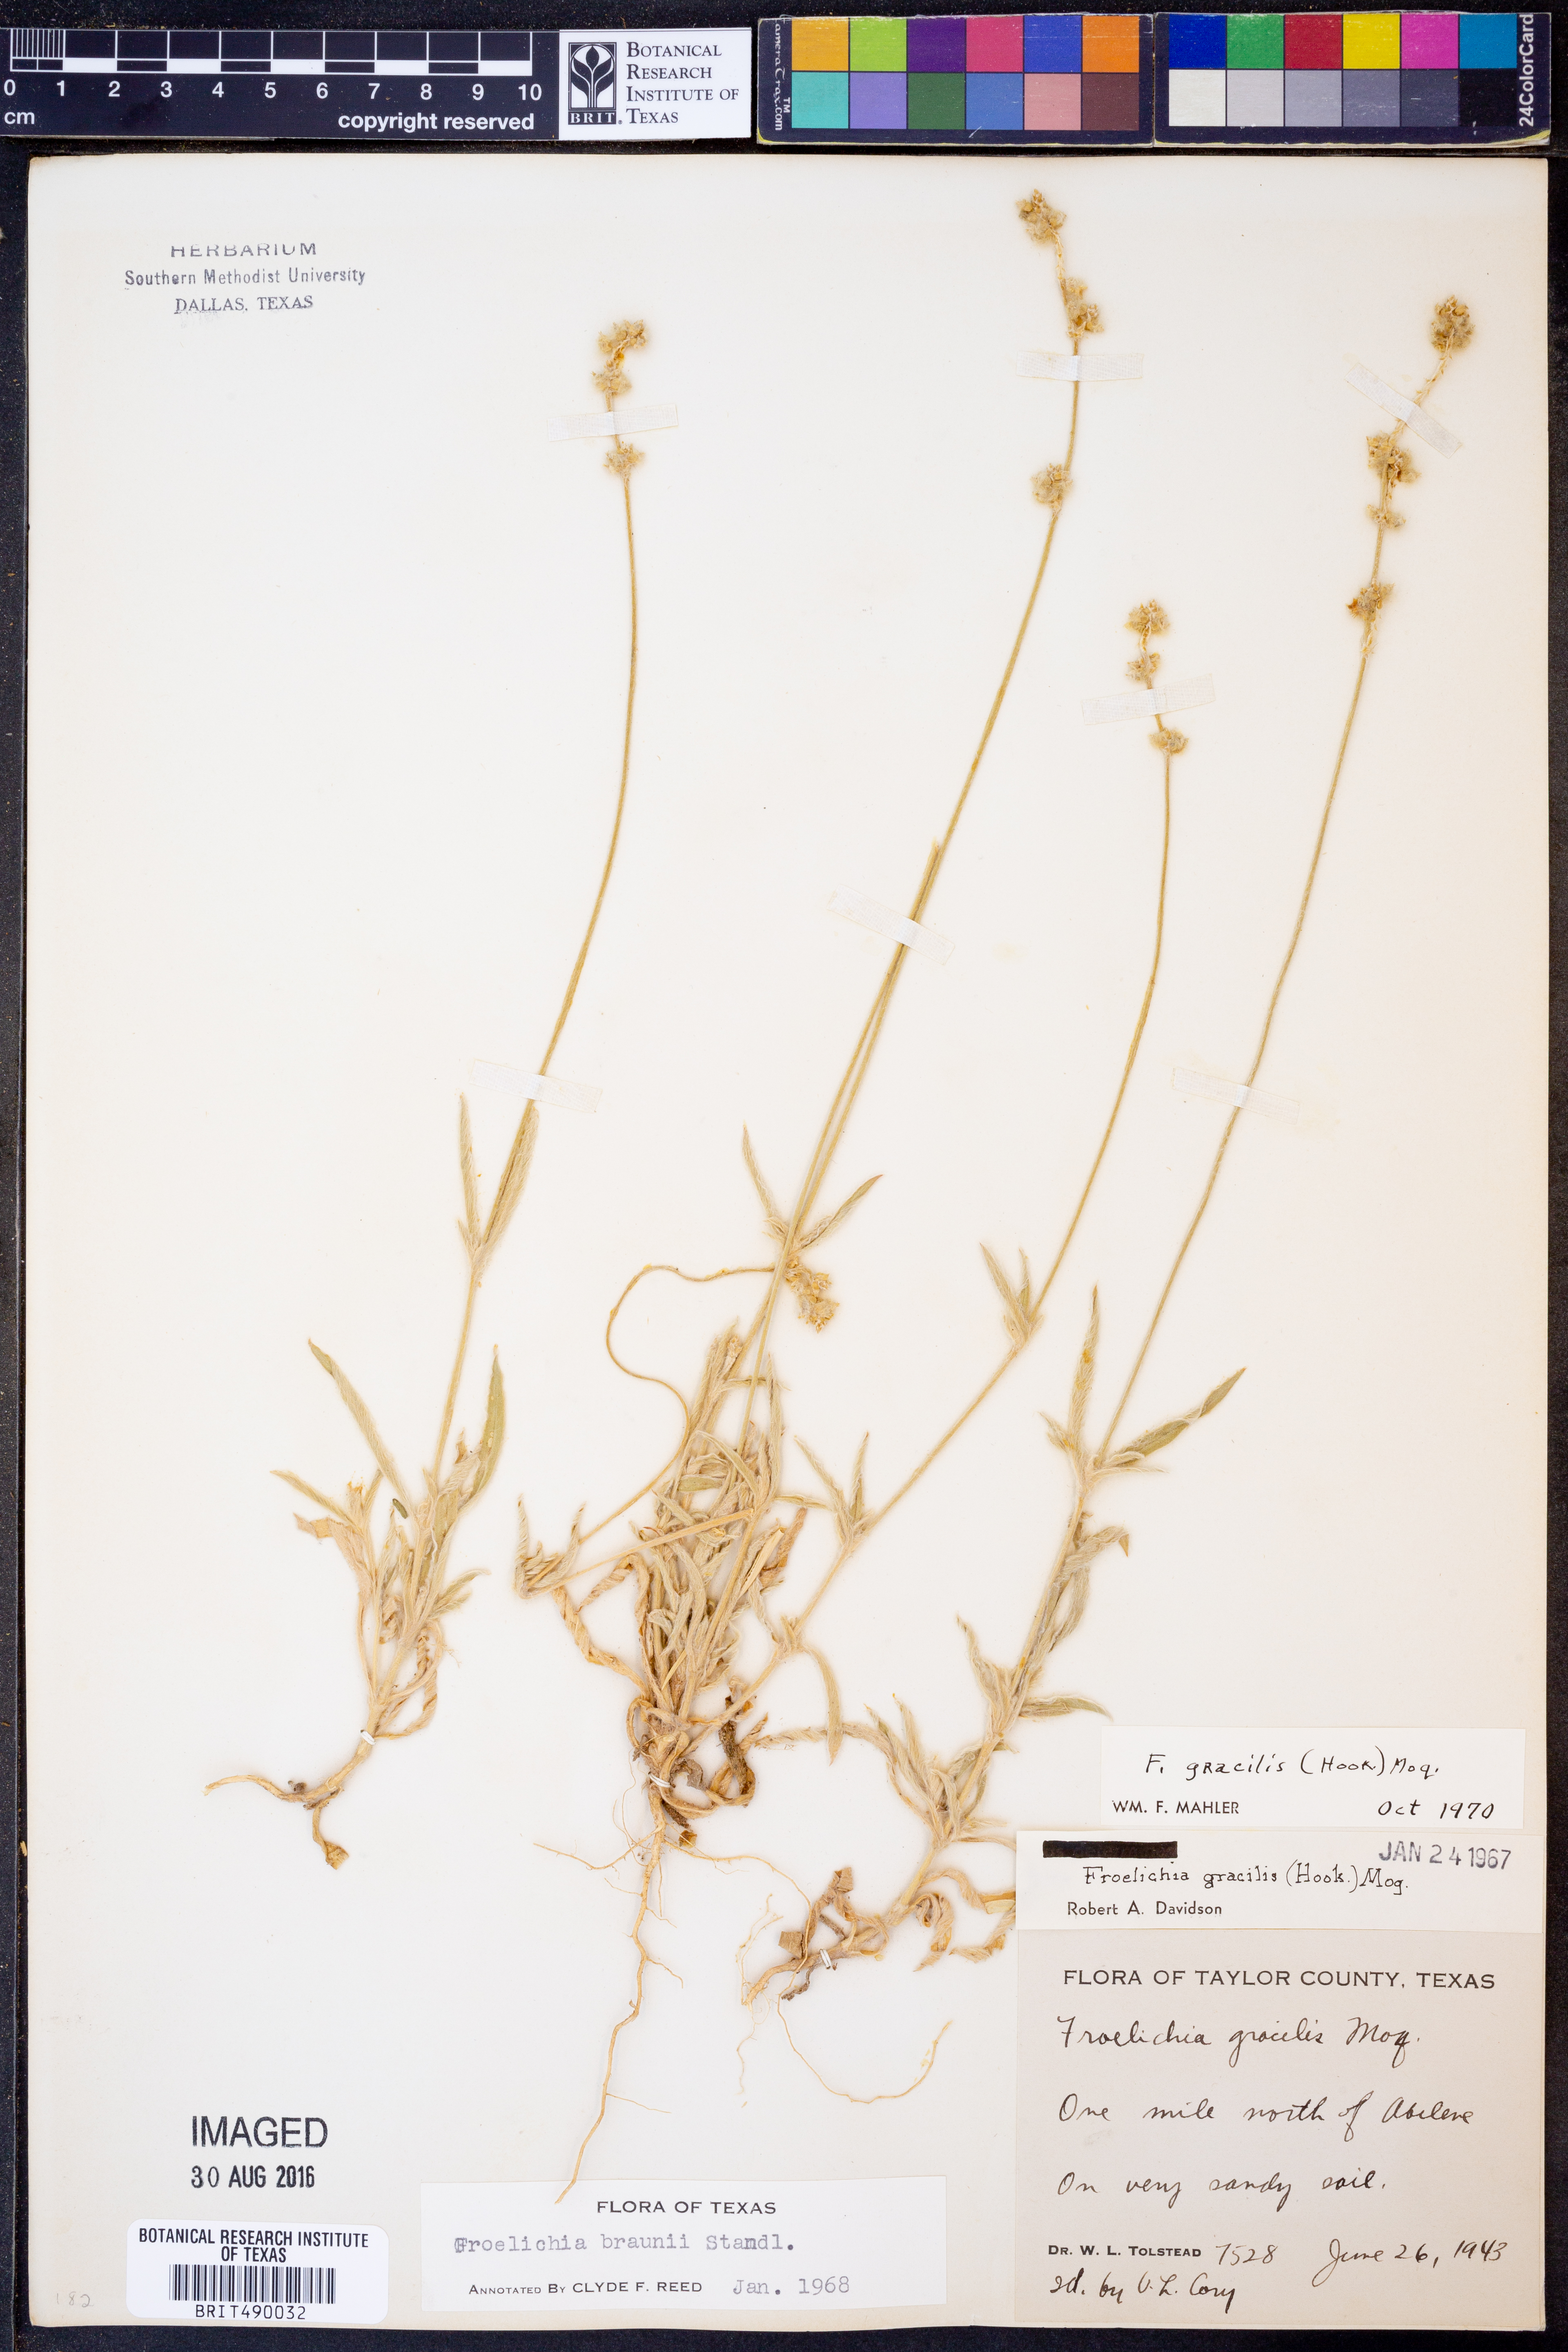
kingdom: Plantae
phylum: Tracheophyta
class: Magnoliopsida
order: Caryophyllales
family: Amaranthaceae
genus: Froelichia
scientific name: Froelichia gracilis
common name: Slender cottonweed
